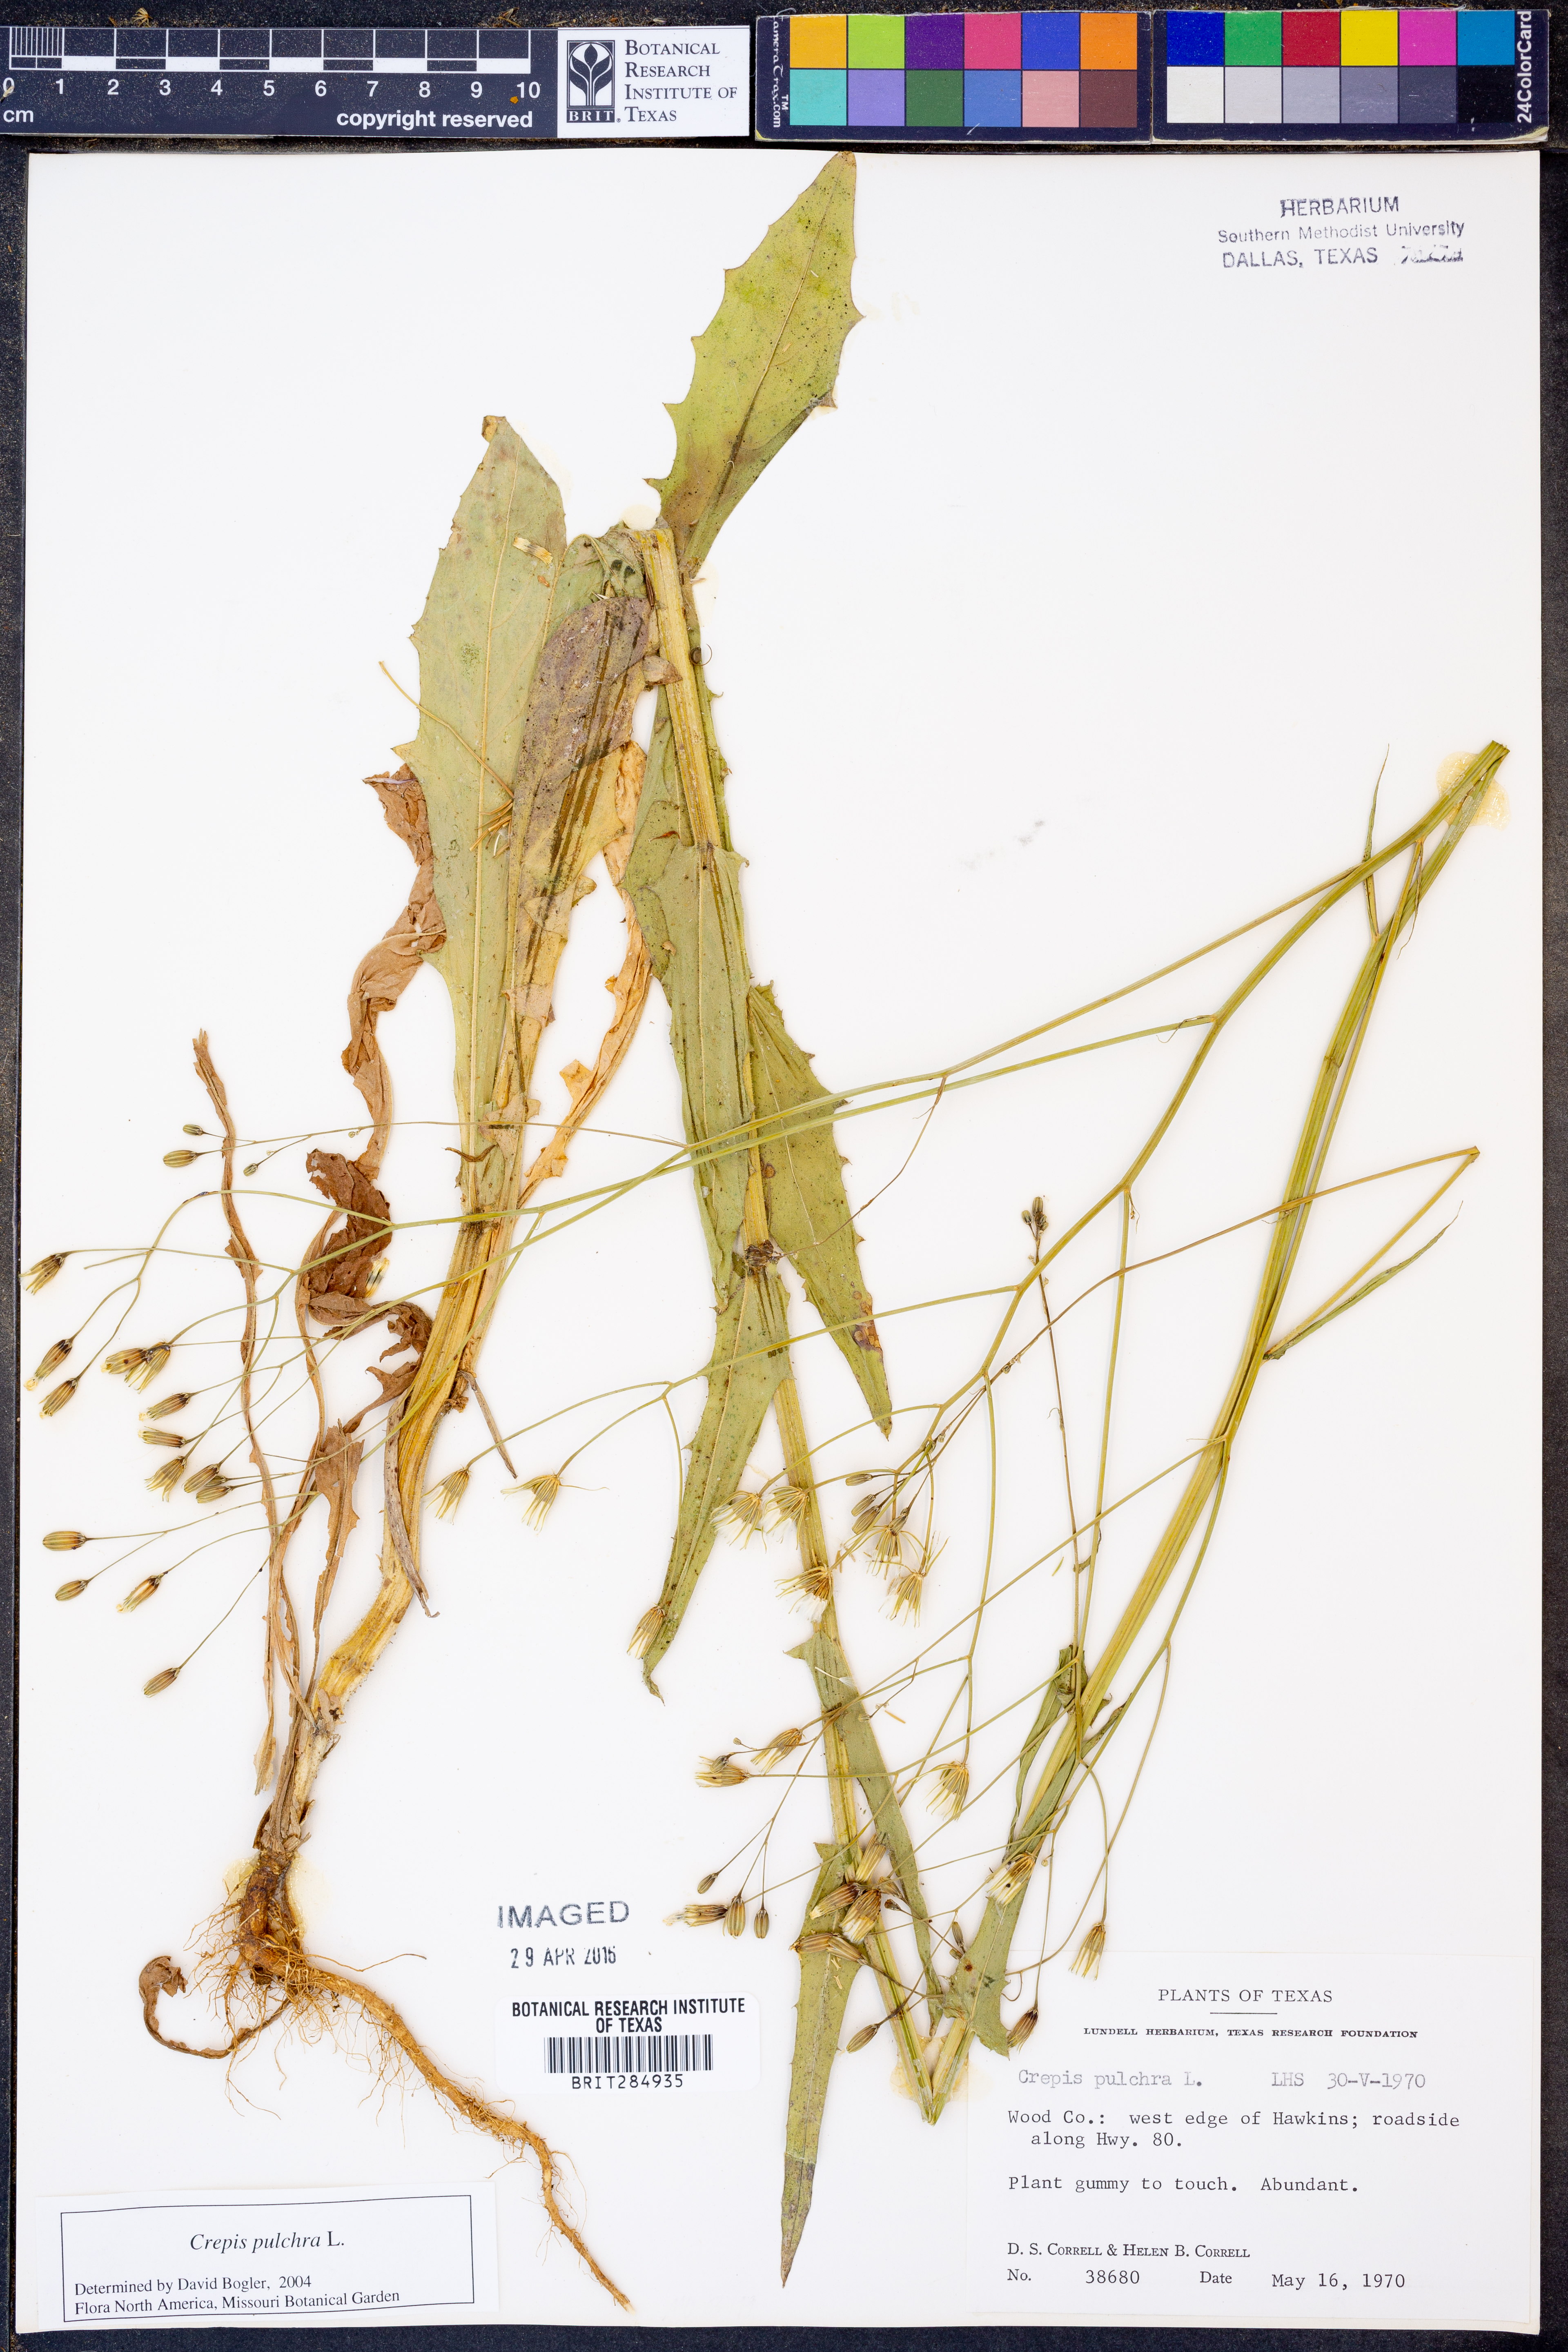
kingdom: Plantae
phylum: Tracheophyta
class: Magnoliopsida
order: Asterales
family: Asteraceae
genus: Crepis
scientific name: Crepis pulchra
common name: Hawk's-beard
